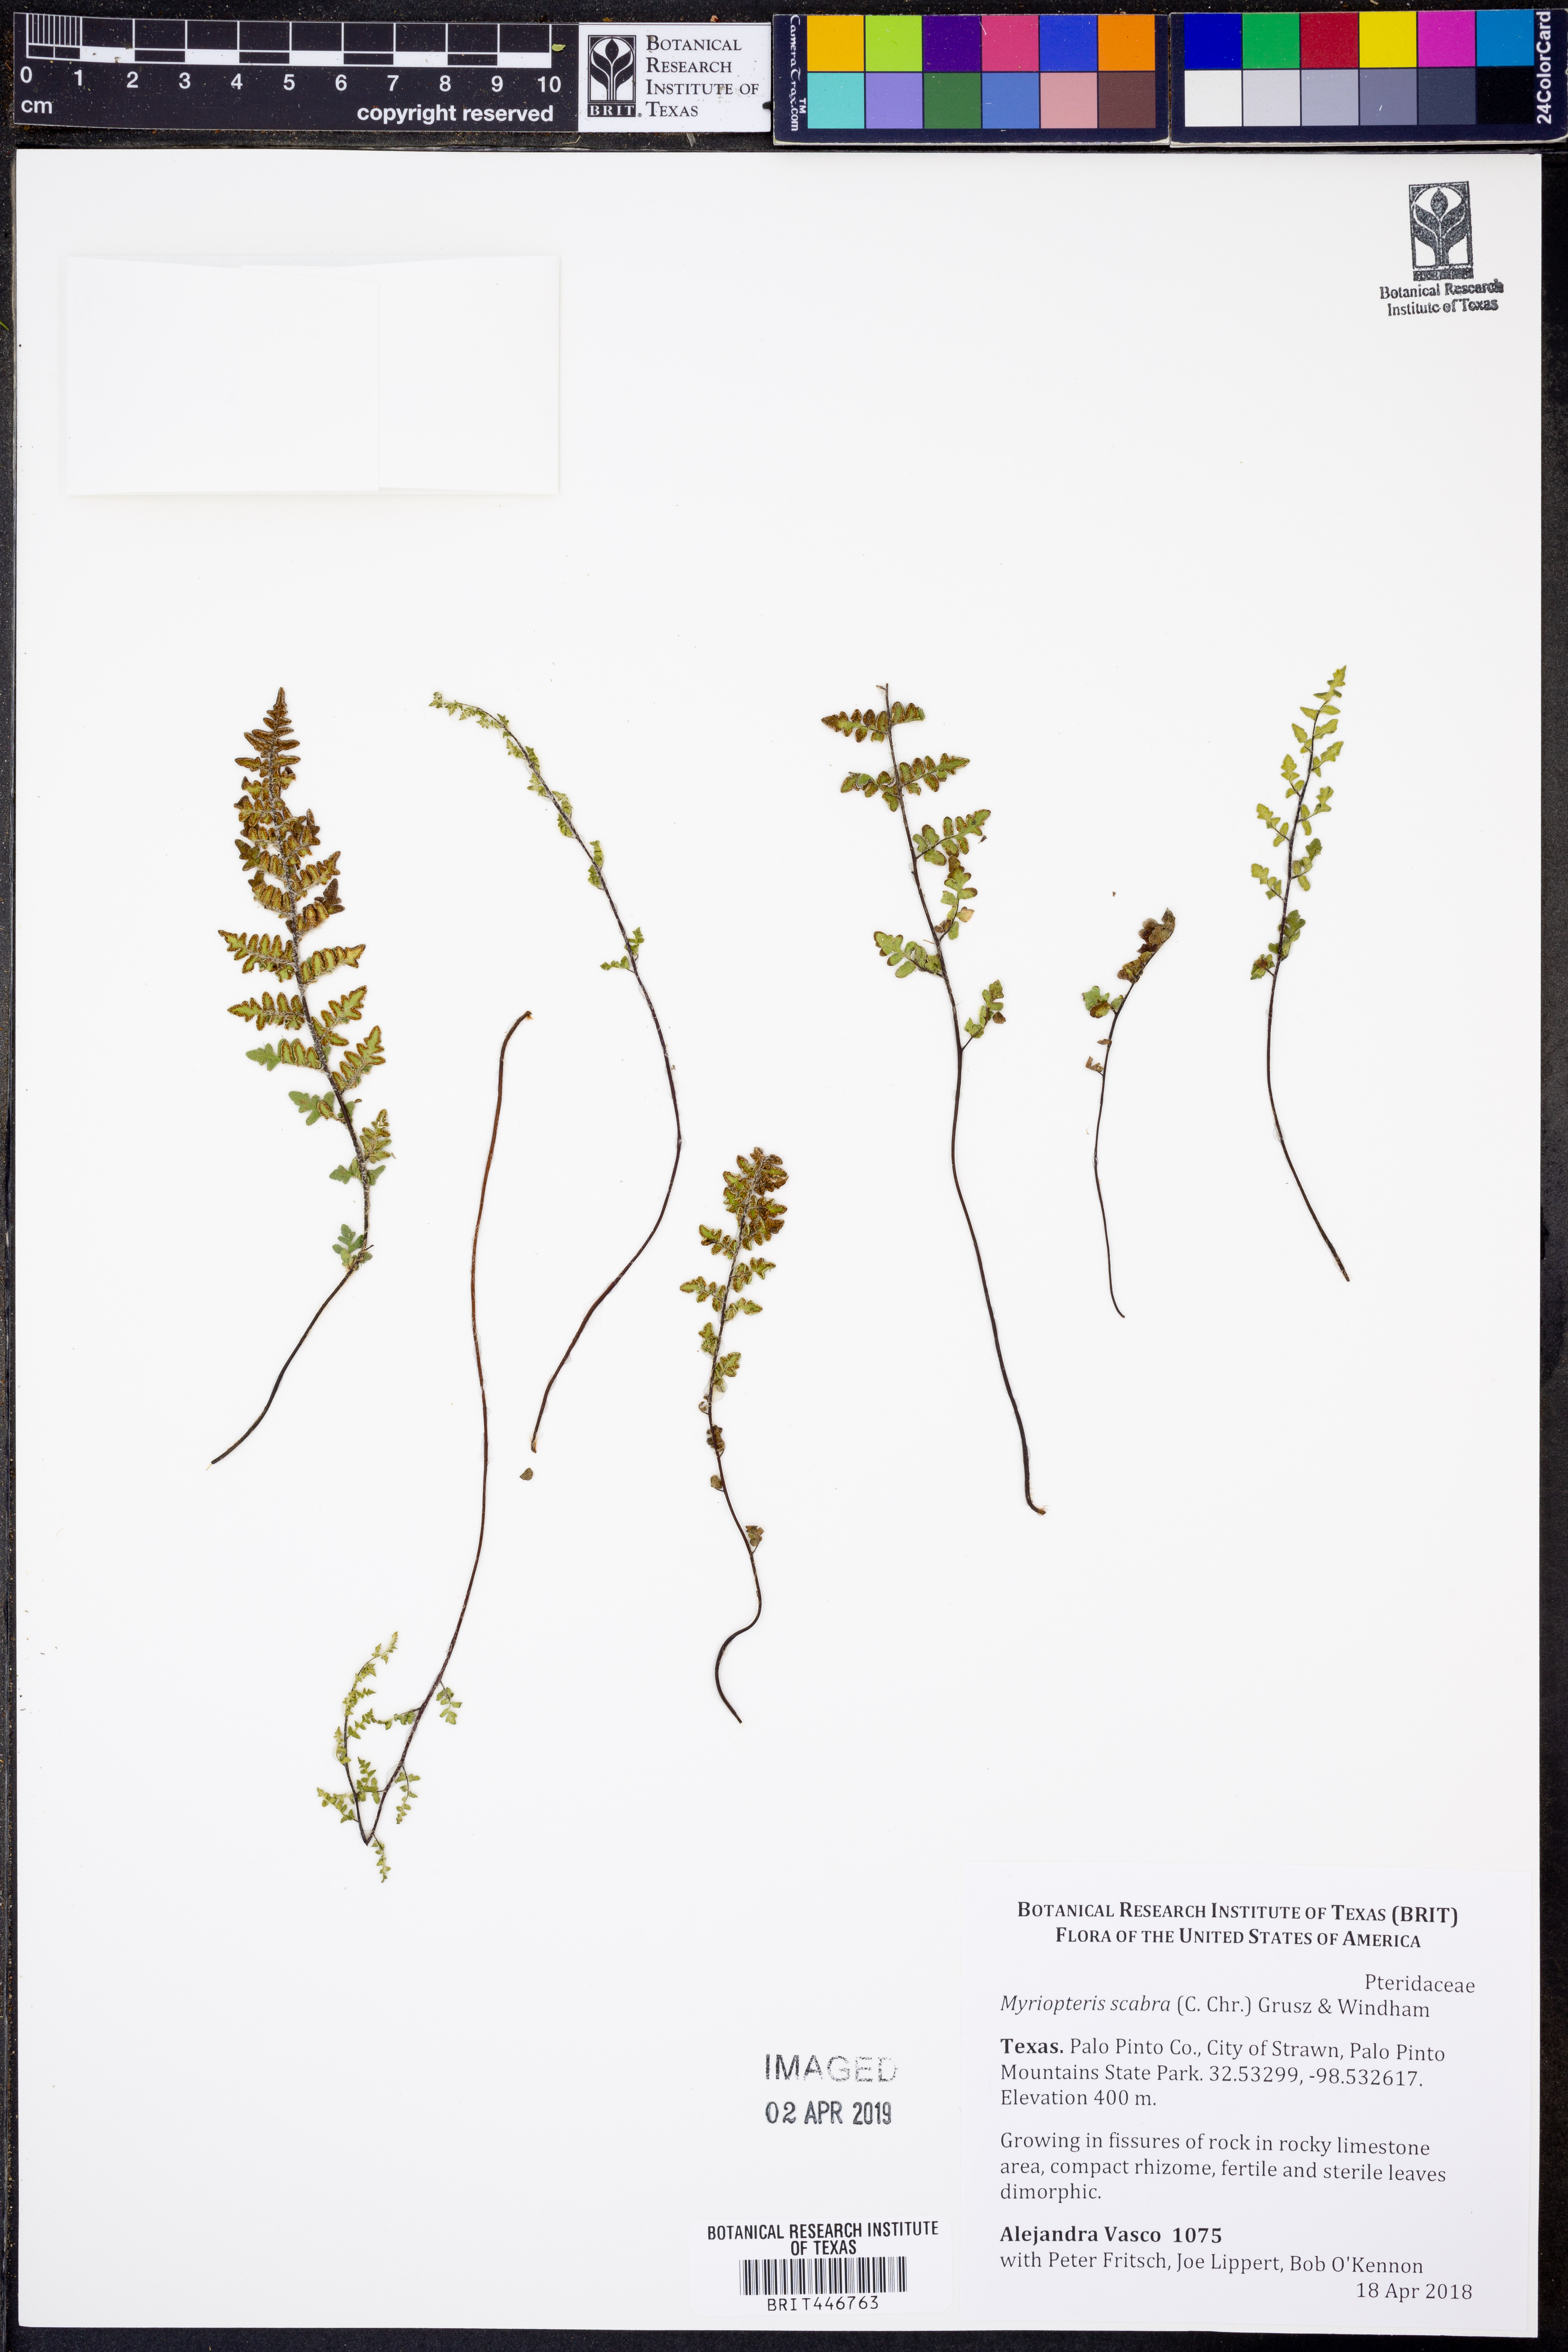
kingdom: Plantae
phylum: Tracheophyta
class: Polypodiopsida
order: Polypodiales
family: Pteridaceae
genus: Myriopteris
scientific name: Myriopteris scabra
